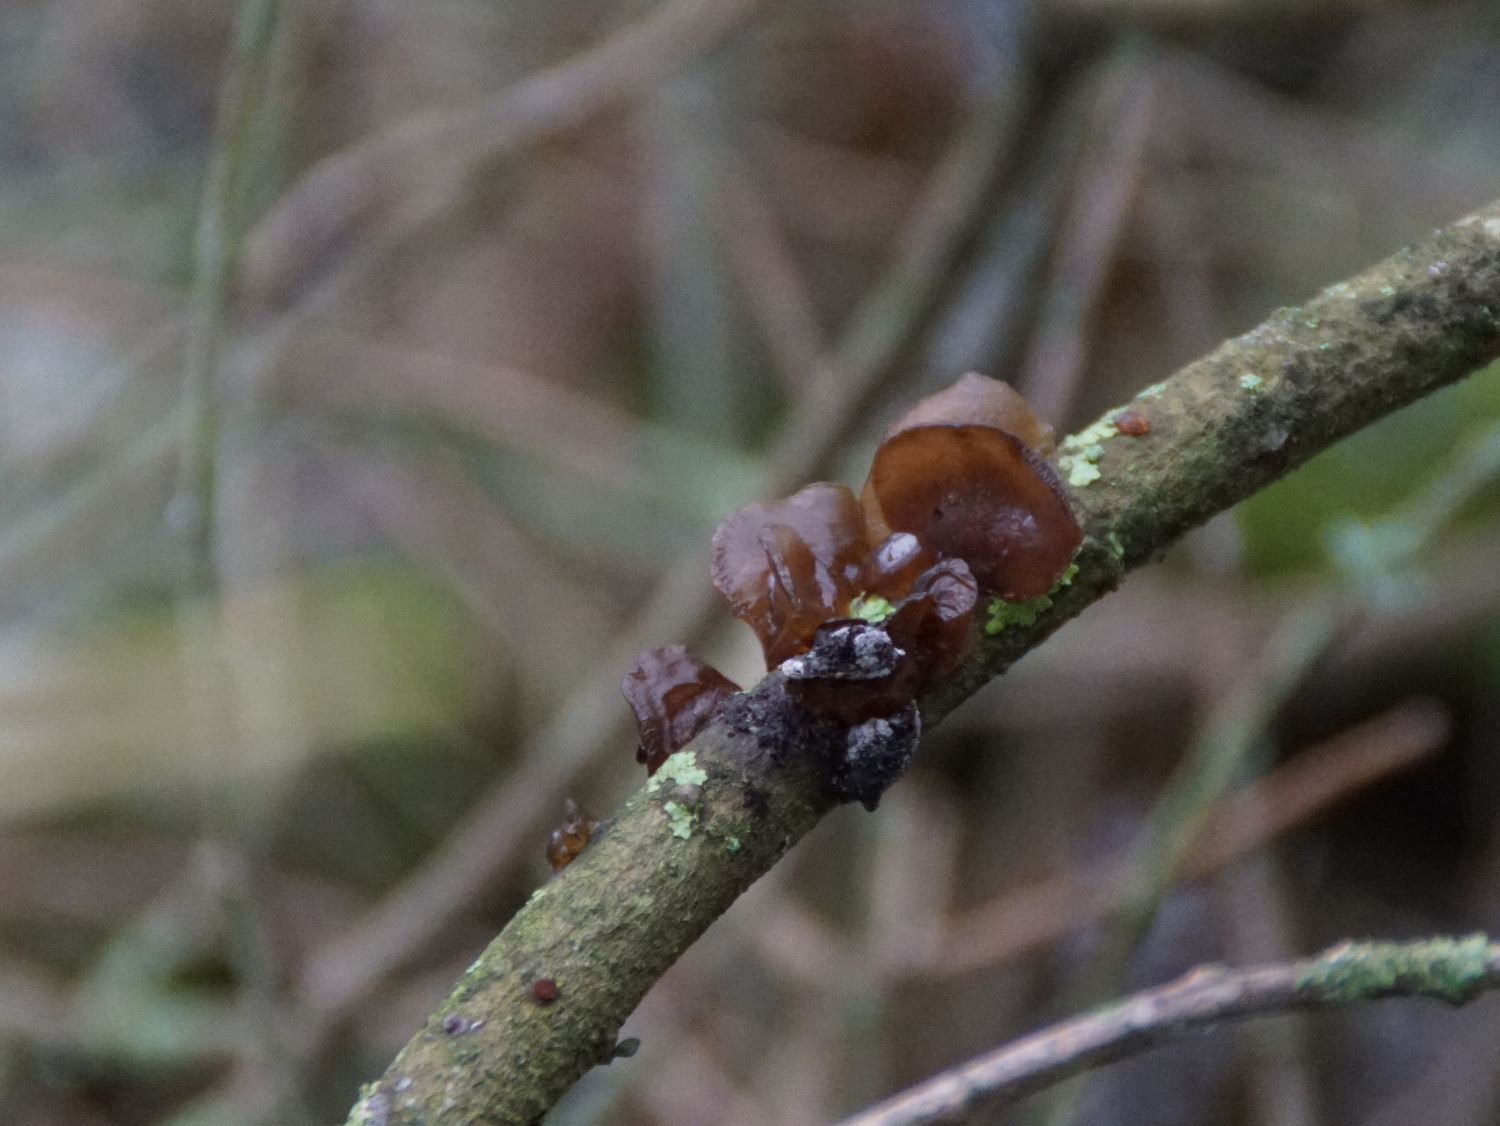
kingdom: Fungi
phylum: Basidiomycota
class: Agaricomycetes
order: Auriculariales
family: Auriculariaceae
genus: Exidia
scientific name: Exidia recisa
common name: pile-bævretop
